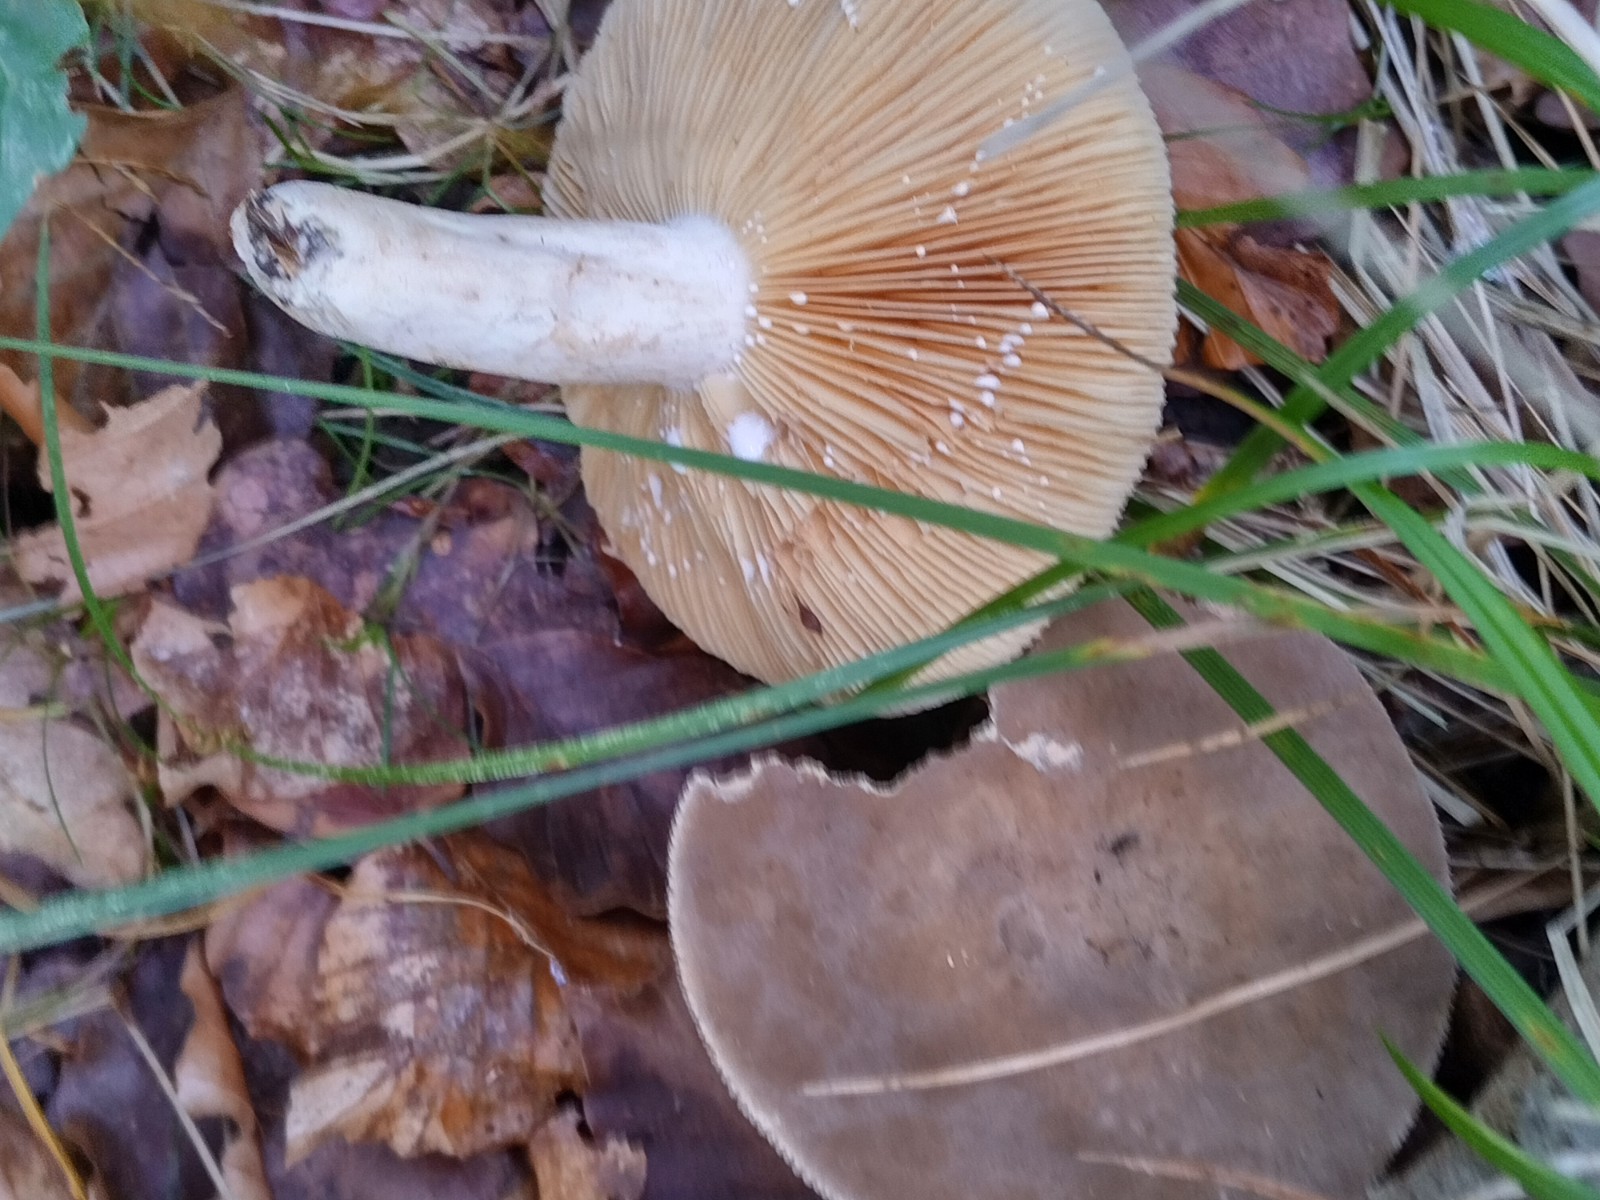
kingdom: Fungi
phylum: Basidiomycota
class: Agaricomycetes
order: Russulales
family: Russulaceae
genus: Lactarius
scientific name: Lactarius
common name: mælkehat
